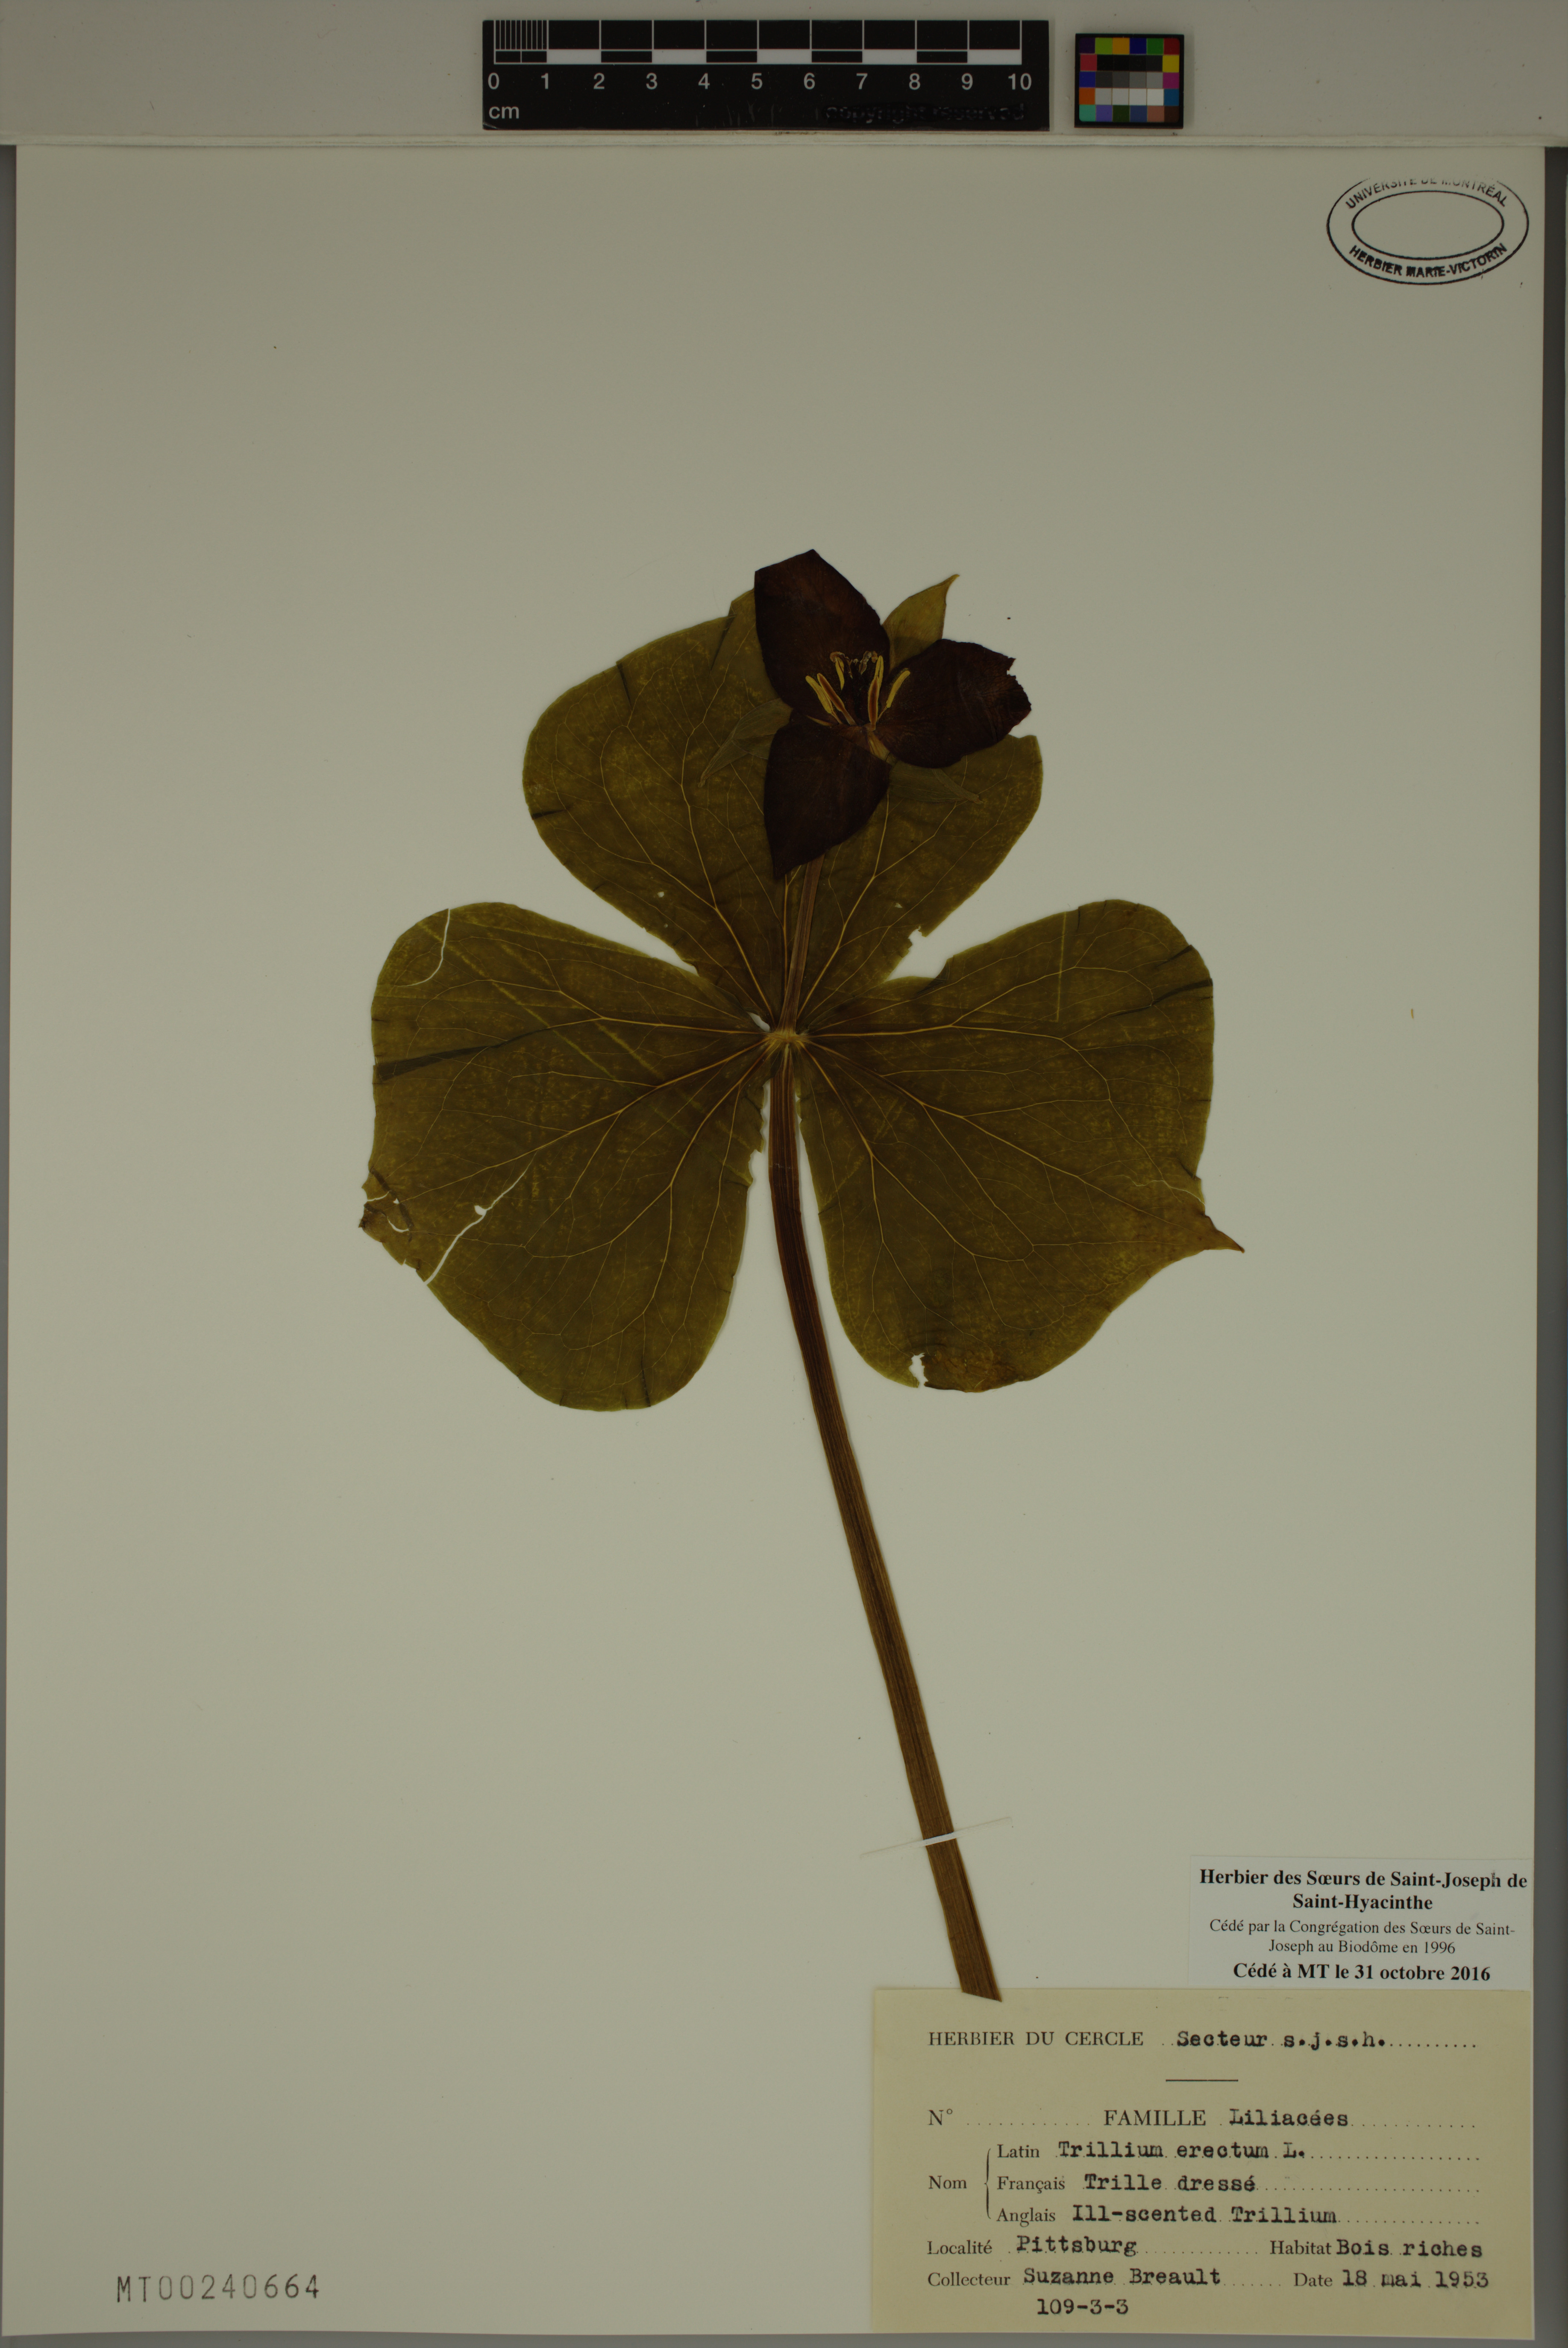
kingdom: Plantae
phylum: Tracheophyta
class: Liliopsida
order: Liliales
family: Melanthiaceae
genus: Trillium
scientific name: Trillium erectum
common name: Purple trillium
